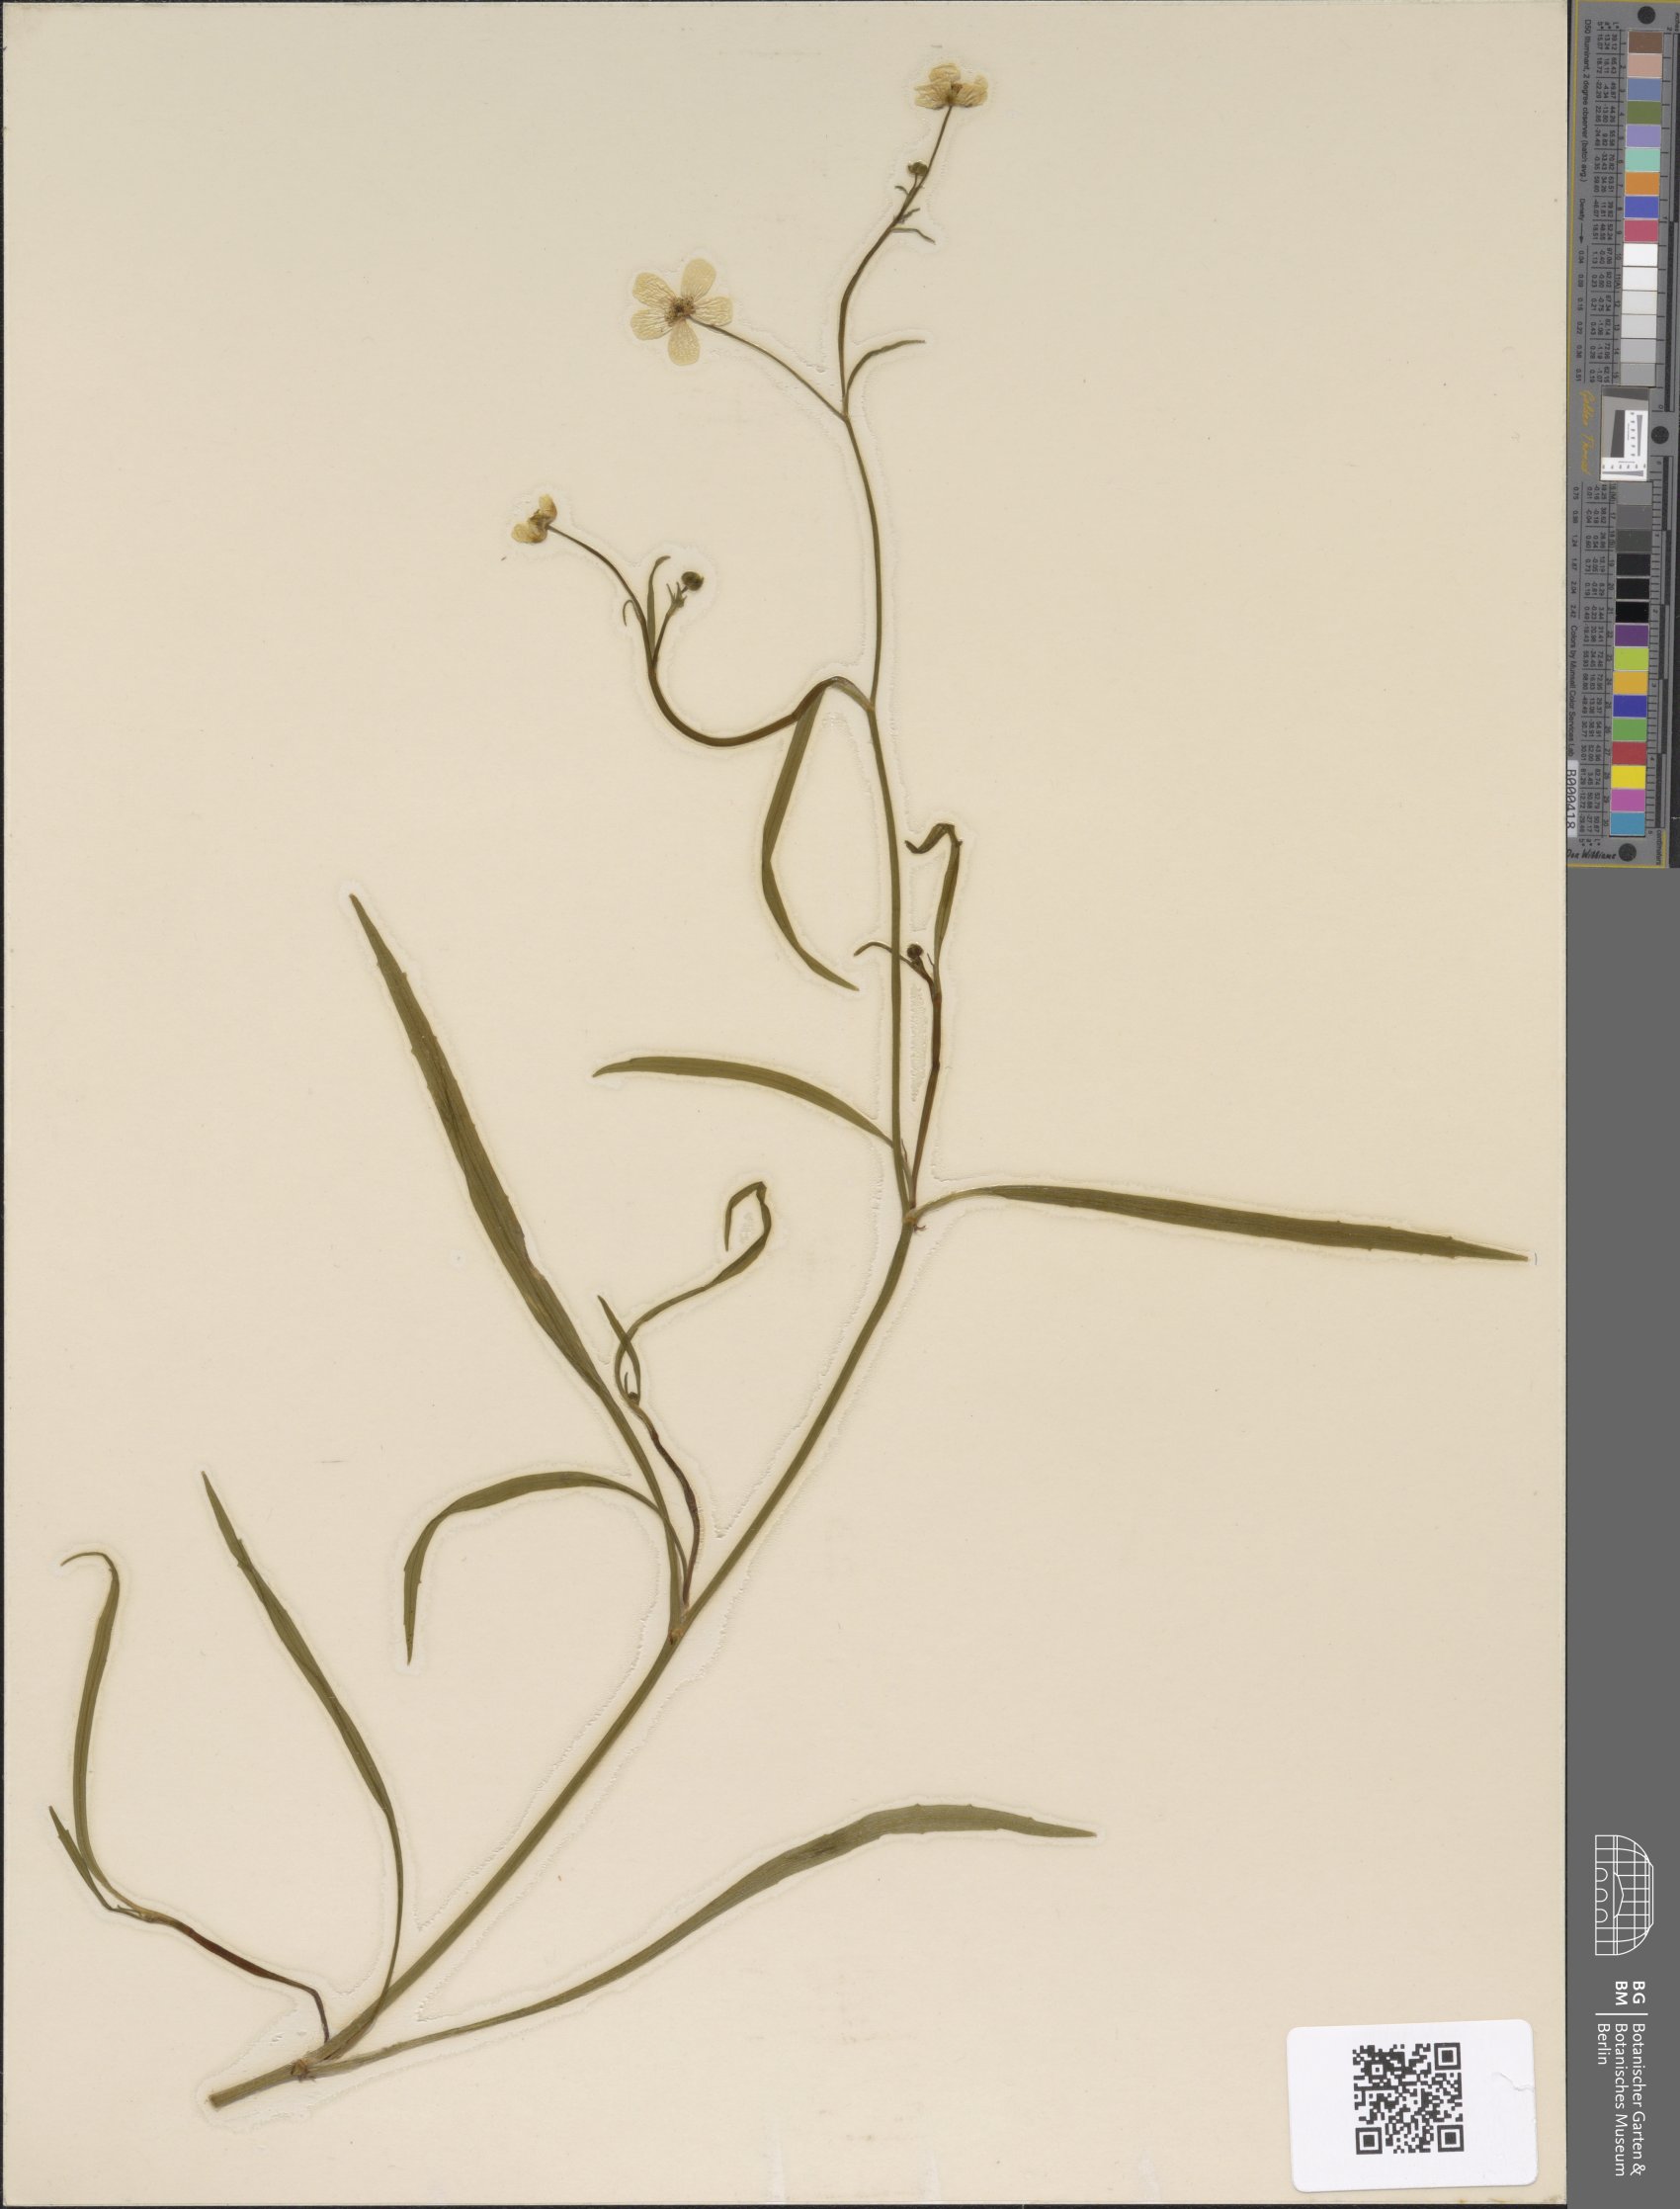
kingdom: Plantae
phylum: Tracheophyta
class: Magnoliopsida
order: Ranunculales
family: Ranunculaceae
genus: Ranunculus
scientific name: Ranunculus flammula
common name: Lesser spearwort
